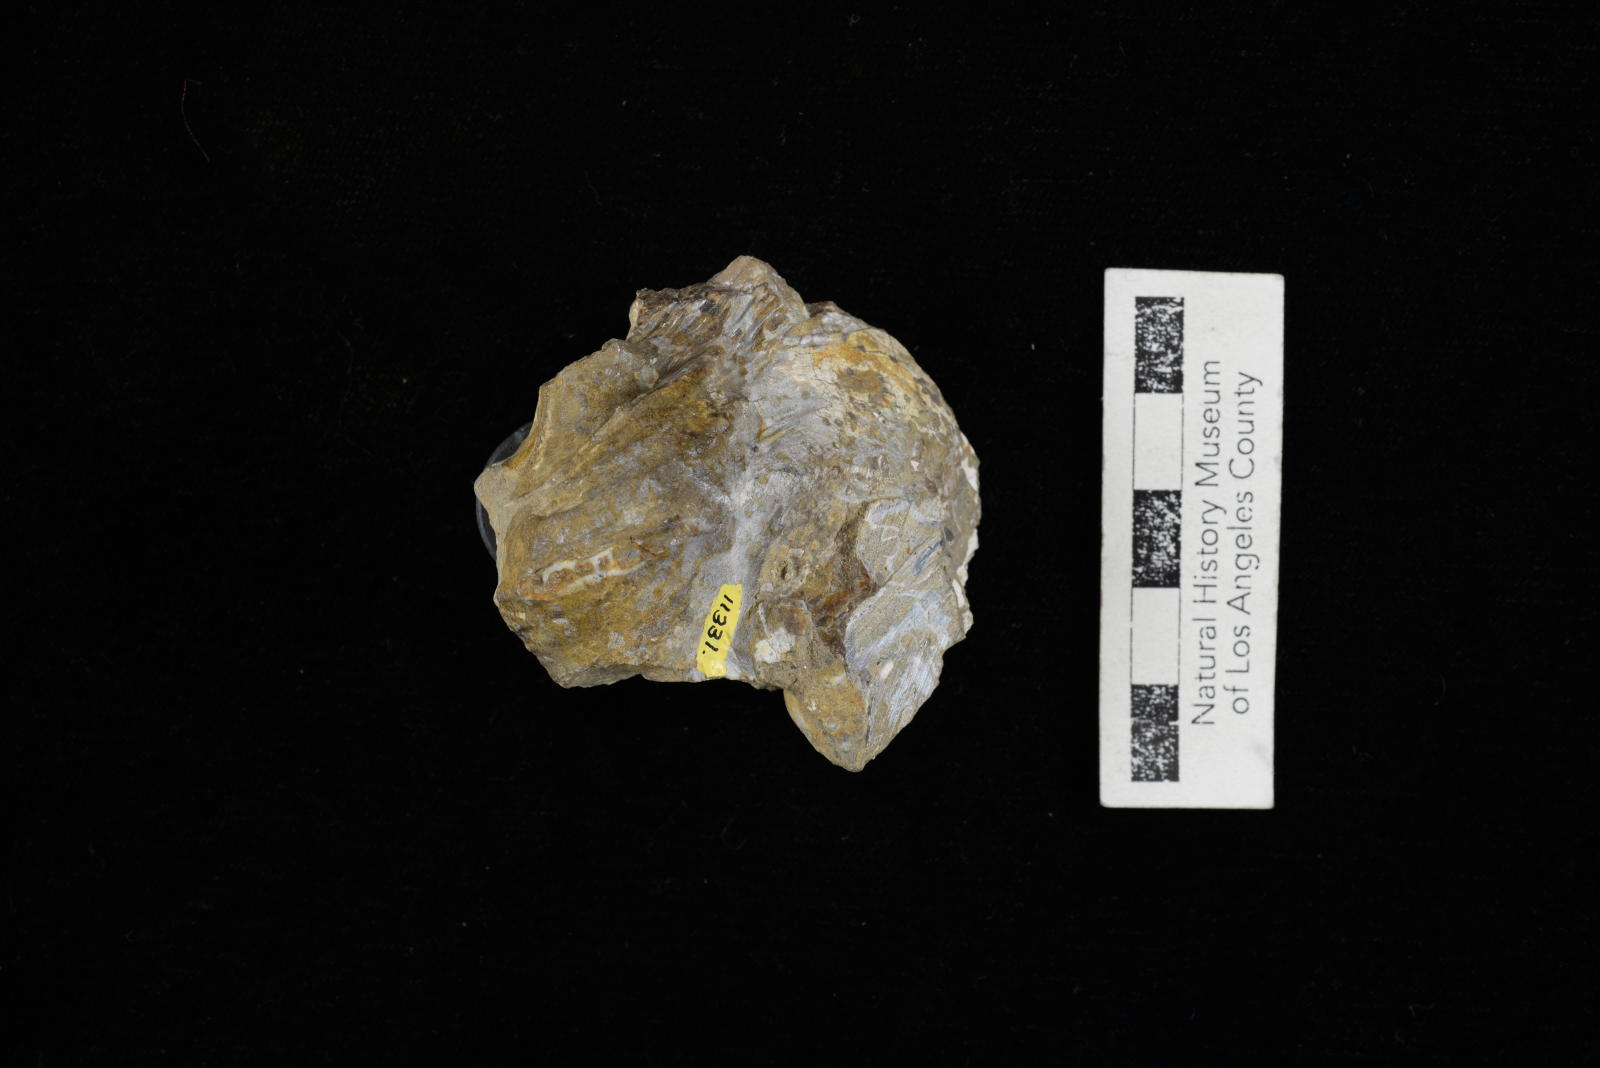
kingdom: Animalia
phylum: Mollusca
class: Gastropoda
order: Littorinimorpha
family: Aporrhaidae
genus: Anchura
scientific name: Anchura phaba
